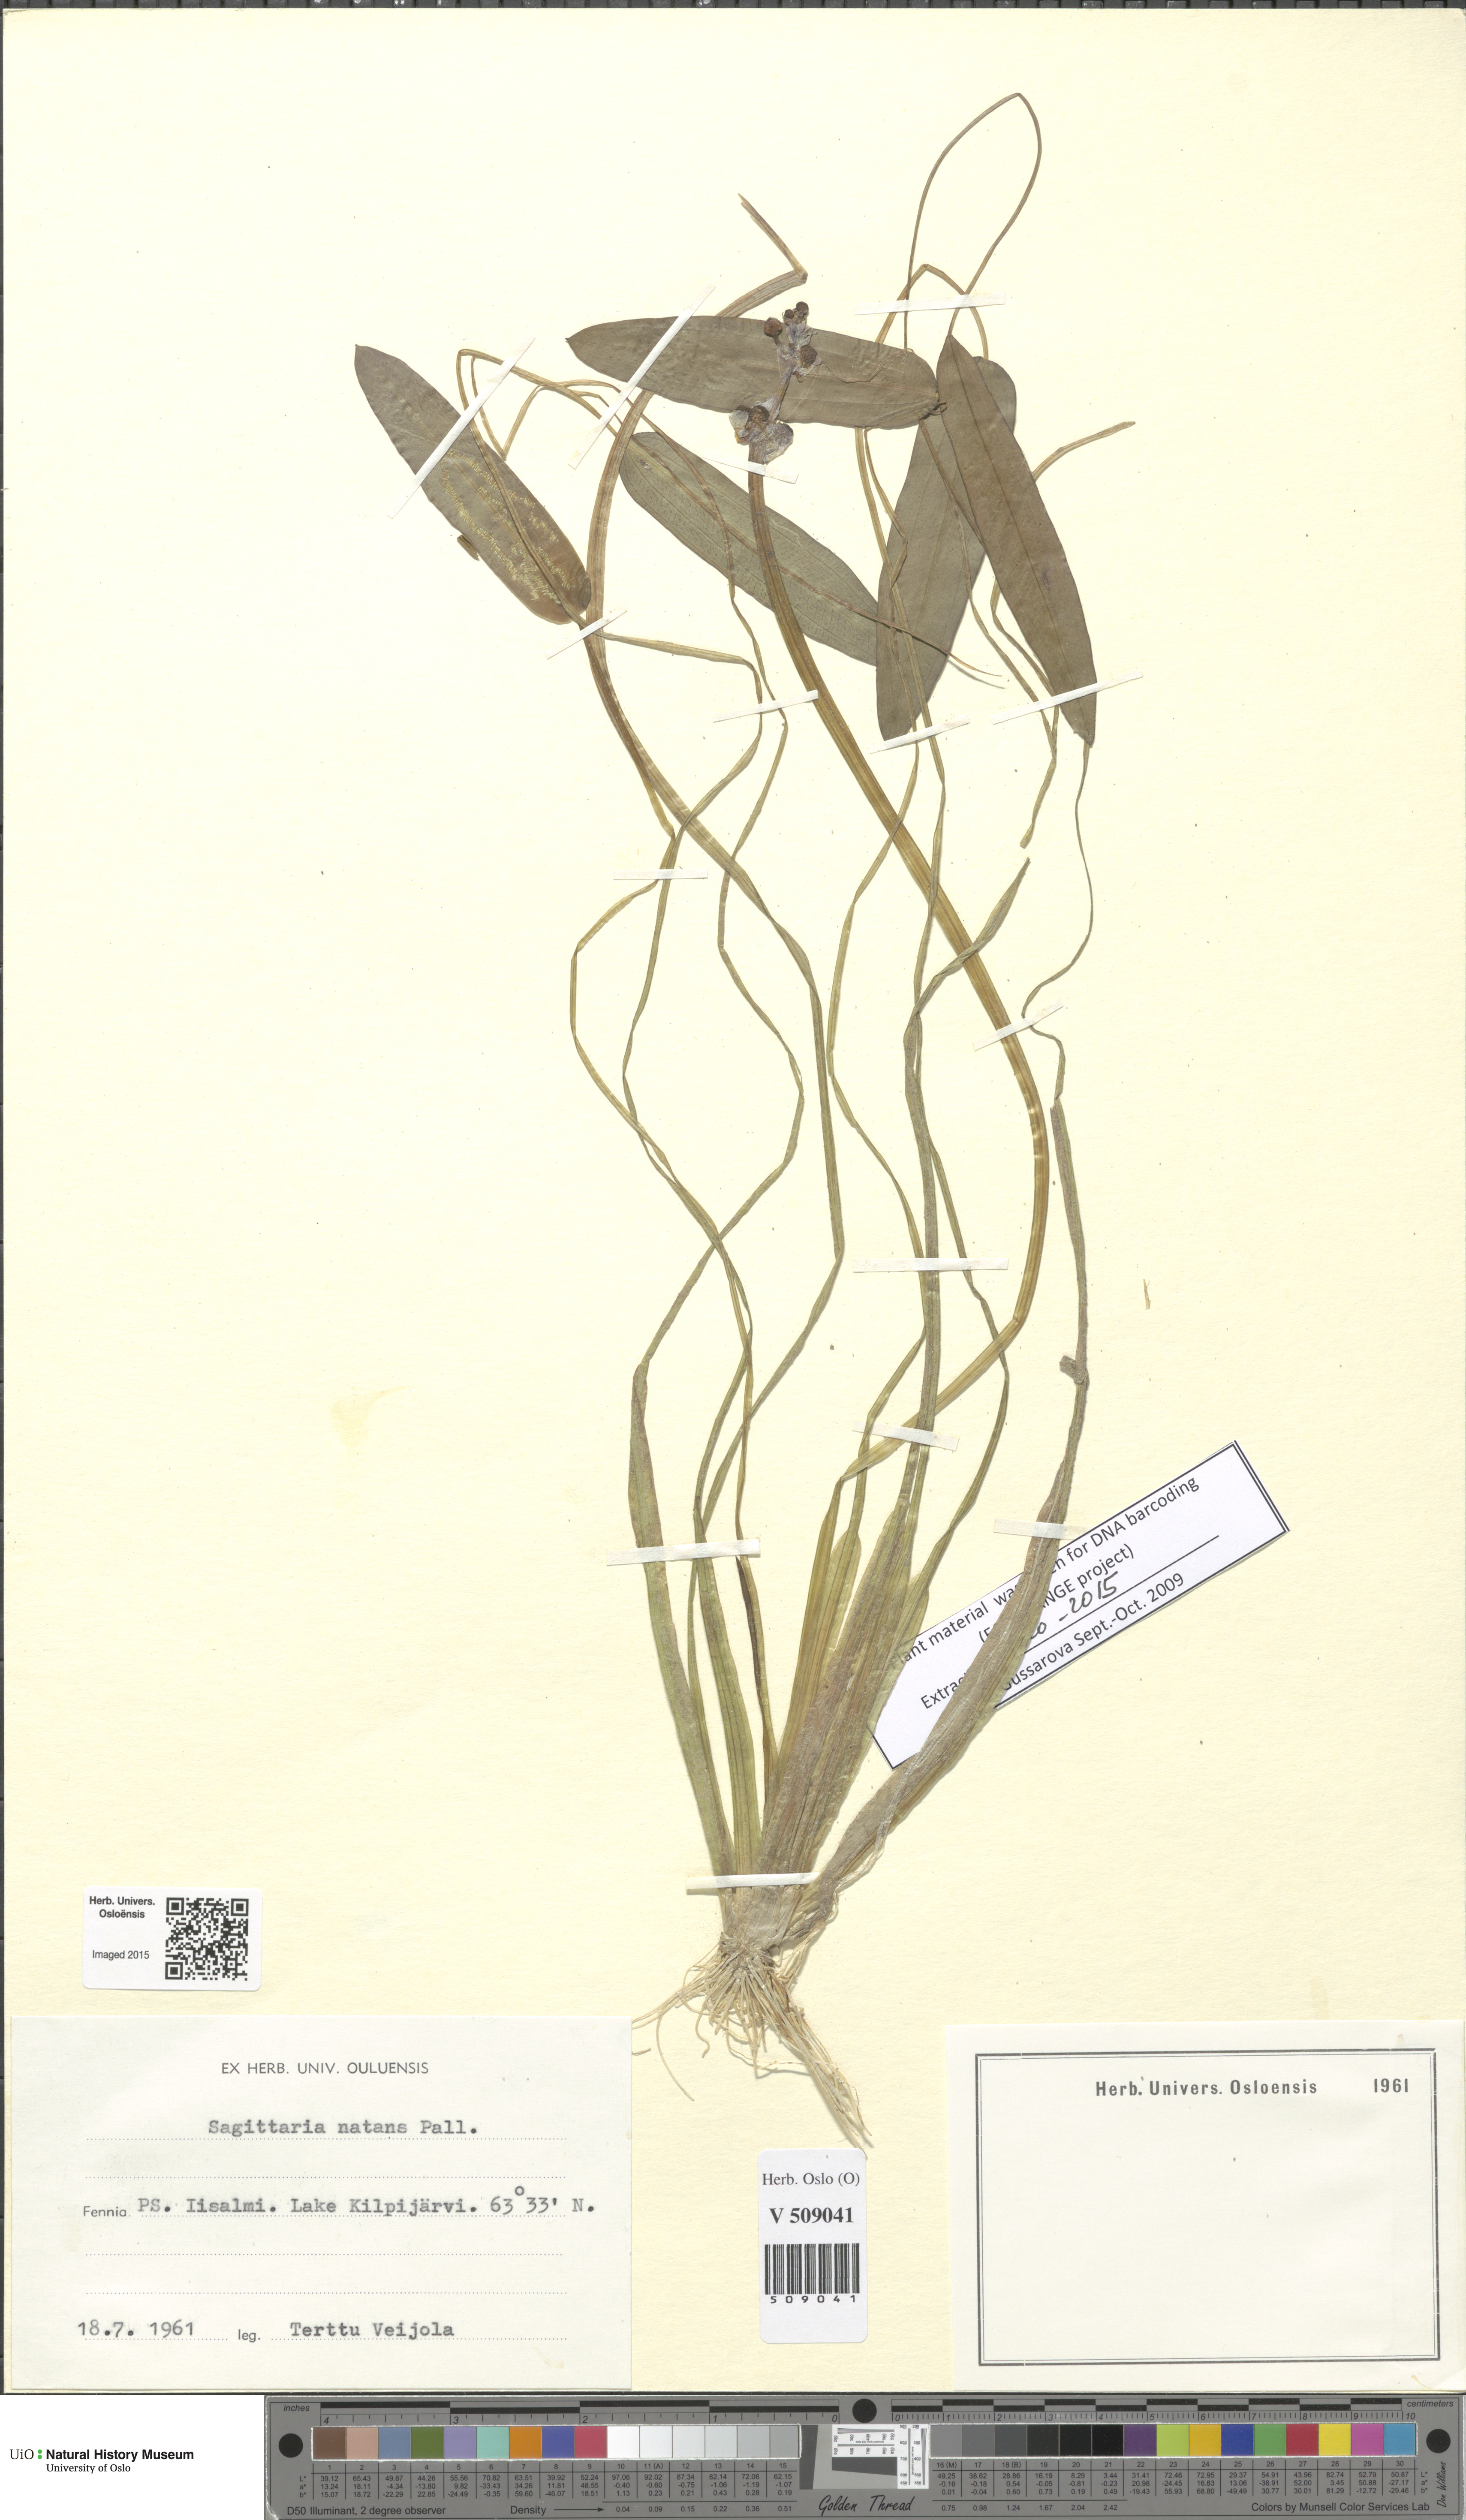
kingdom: Plantae
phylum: Tracheophyta
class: Liliopsida
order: Alismatales
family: Alismataceae
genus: Sagittaria
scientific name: Sagittaria natans
